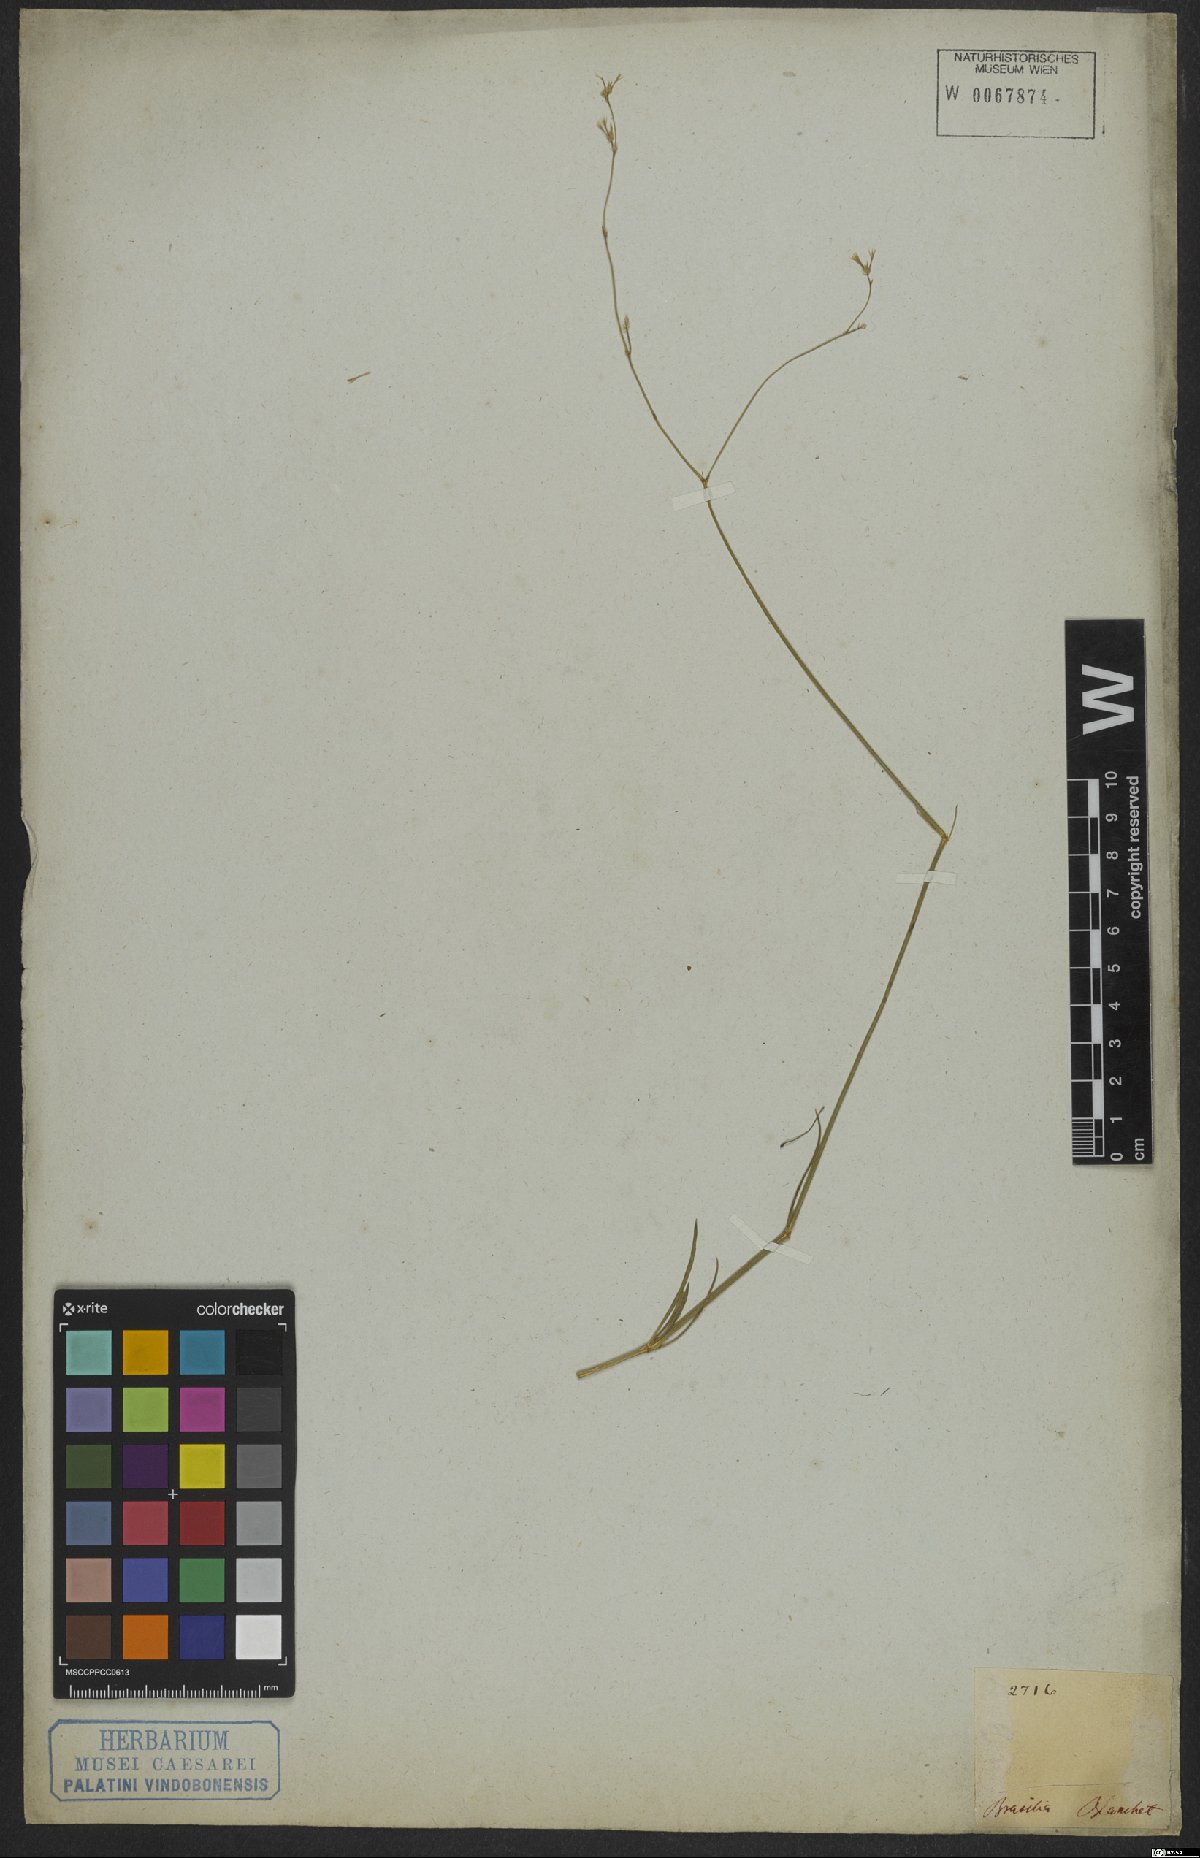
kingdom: Plantae
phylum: Tracheophyta
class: Magnoliopsida
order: Caryophyllales
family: Amaranthaceae
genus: Gomphrena
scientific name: Gomphrena angustiflora
